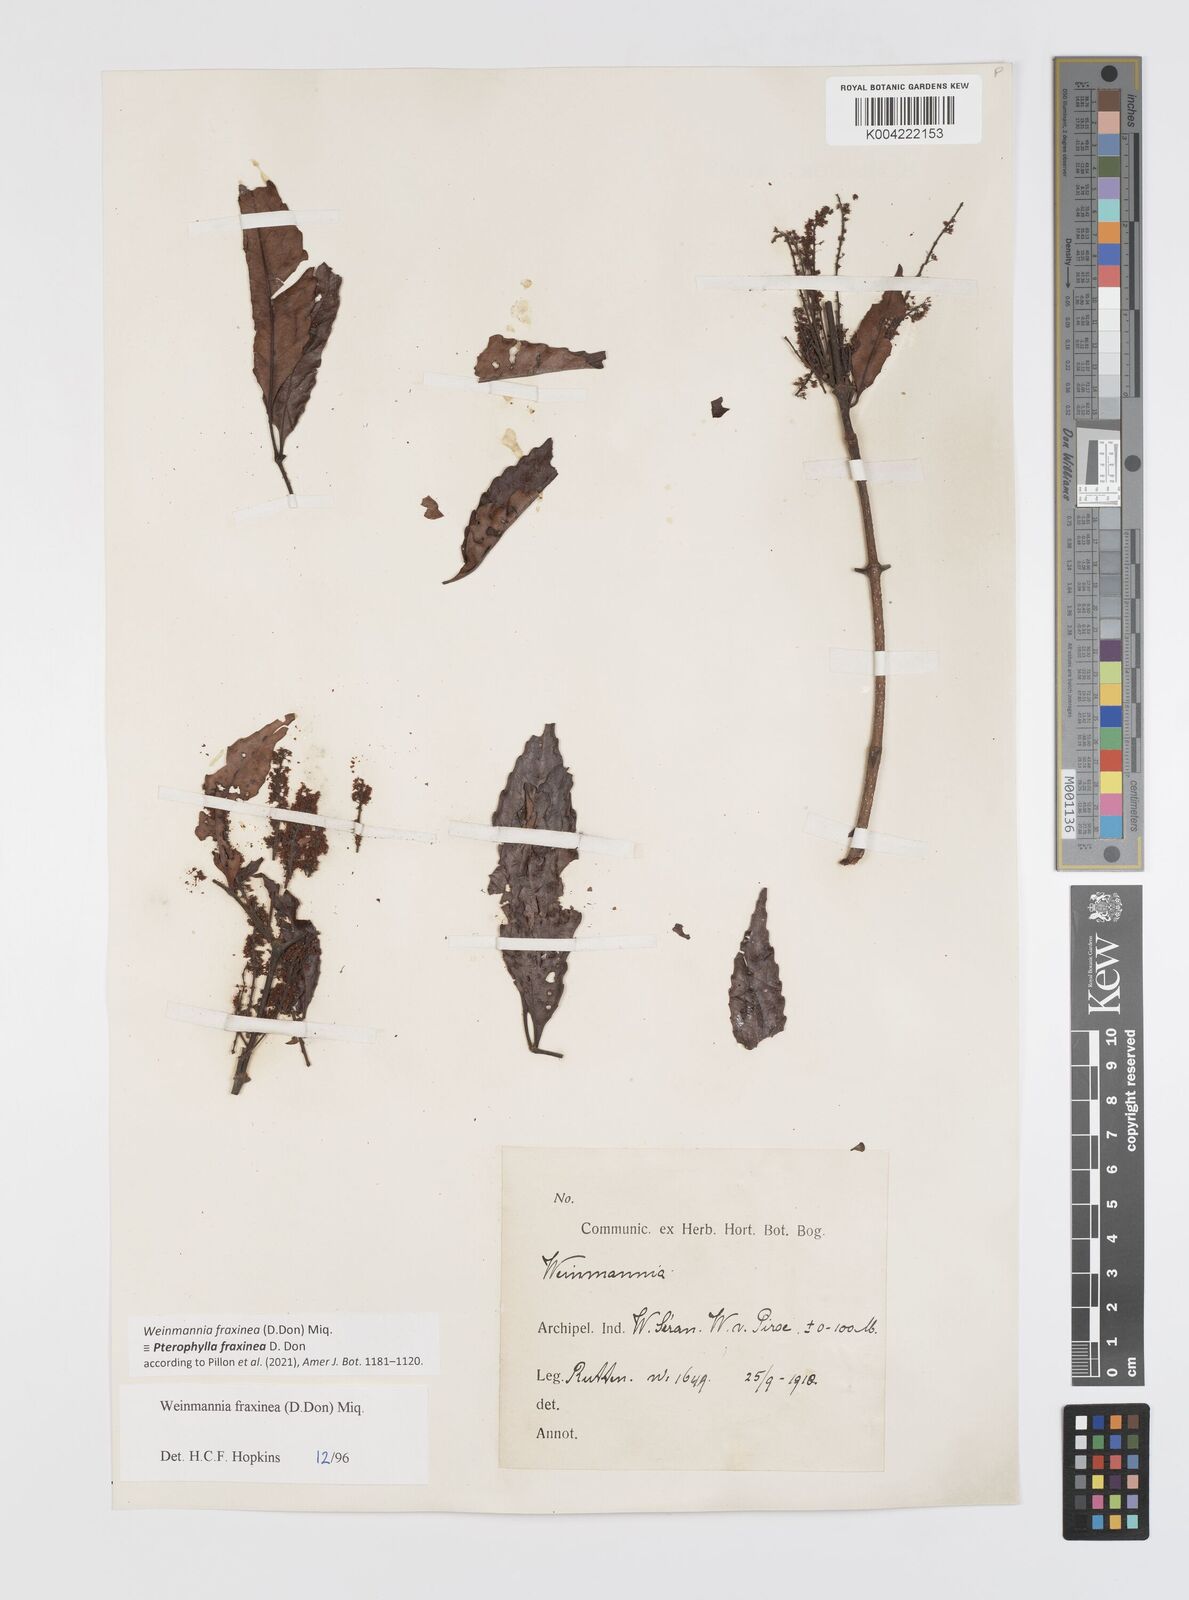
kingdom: Plantae
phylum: Tracheophyta
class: Magnoliopsida
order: Oxalidales
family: Cunoniaceae
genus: Pterophylla
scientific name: Pterophylla fraxinea
